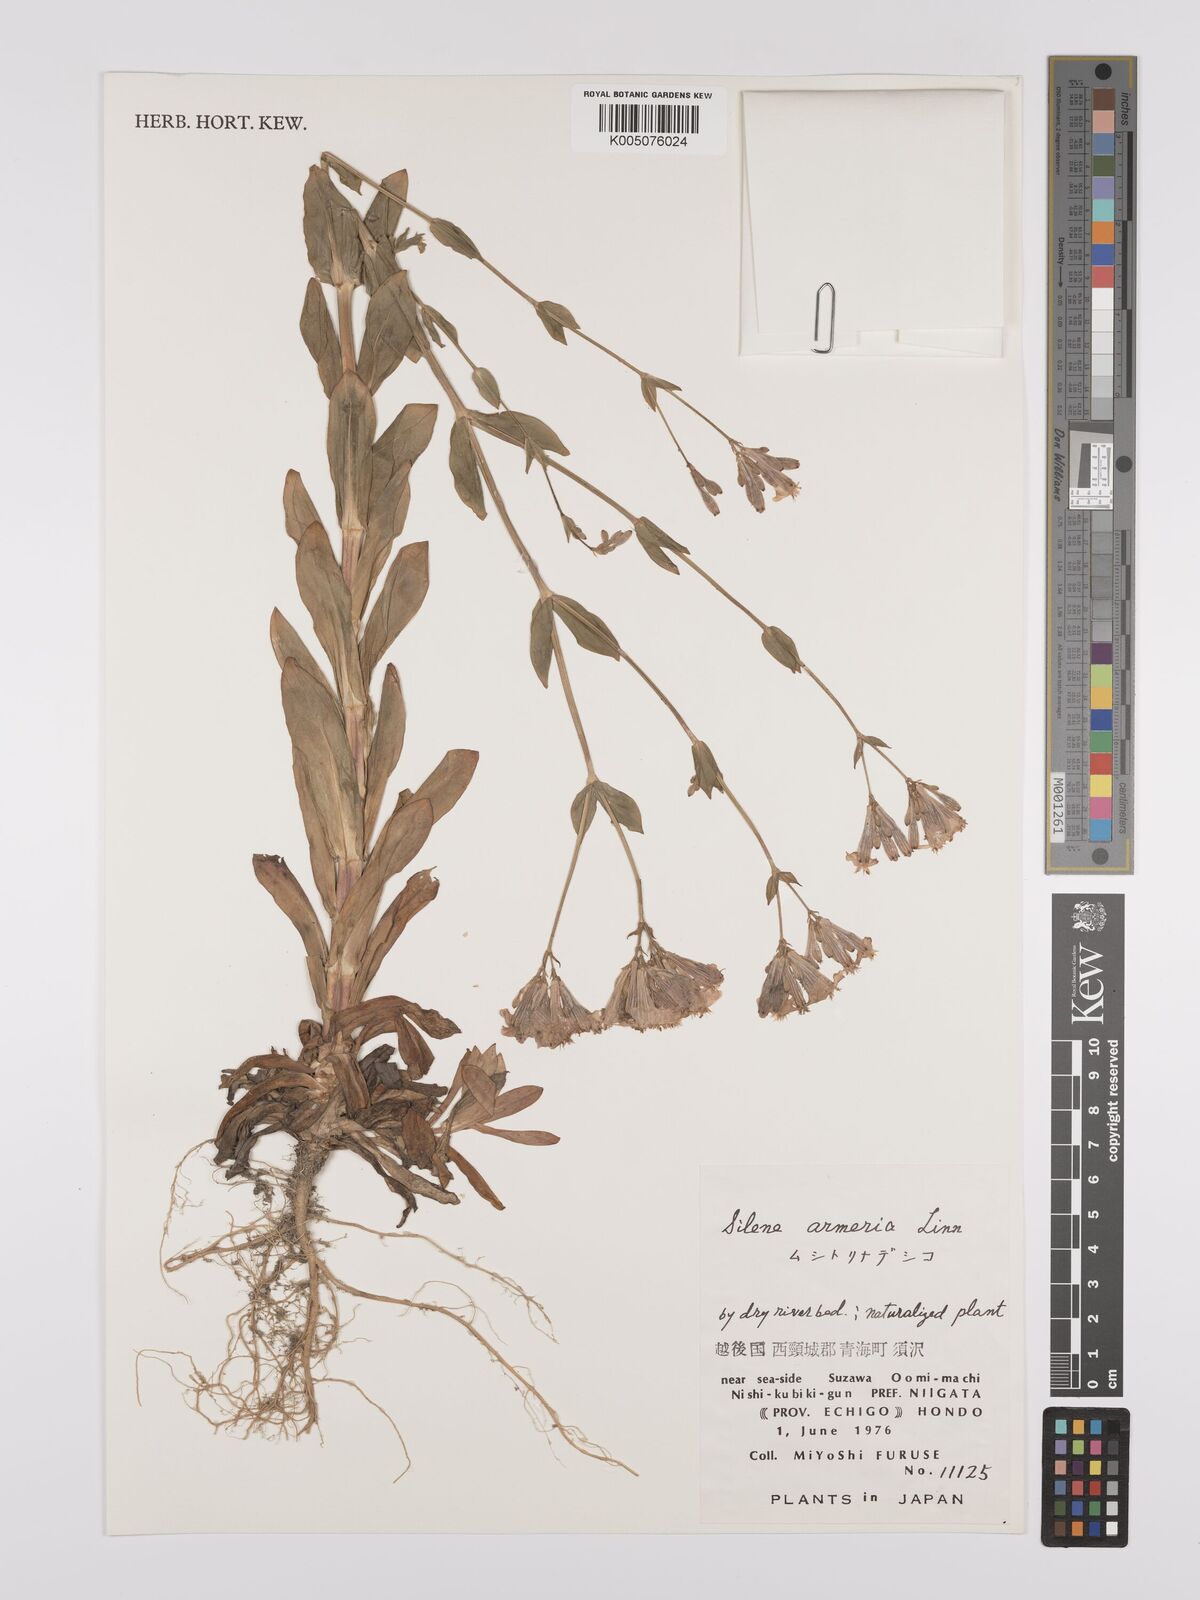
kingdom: Plantae
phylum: Tracheophyta
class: Magnoliopsida
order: Caryophyllales
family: Caryophyllaceae
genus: Silene
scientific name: Silene
